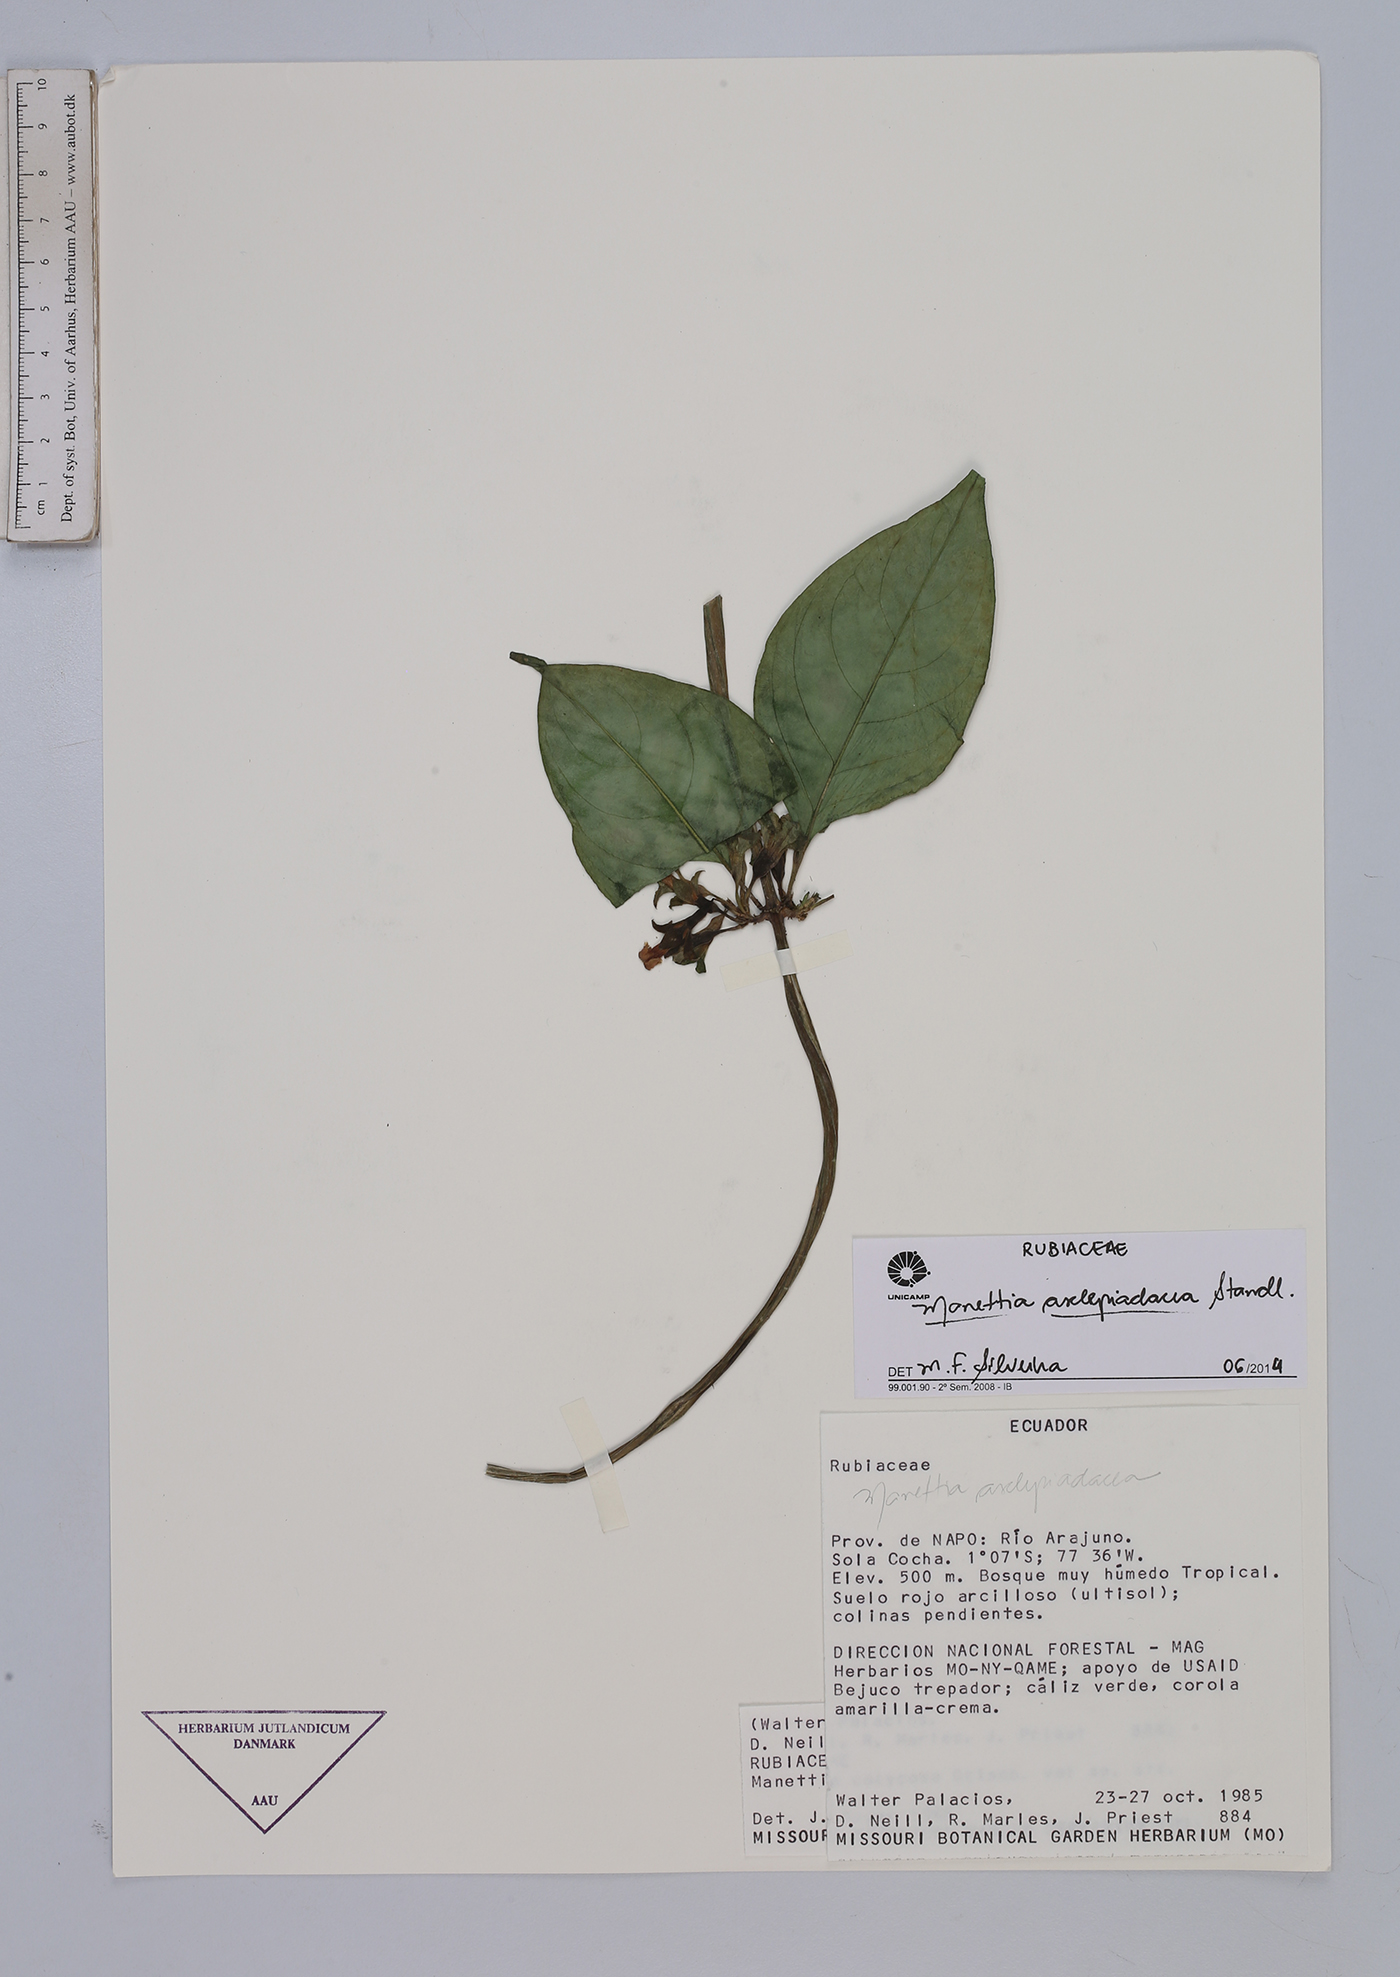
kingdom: Plantae
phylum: Tracheophyta
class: Magnoliopsida
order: Gentianales
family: Rubiaceae
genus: Manettia
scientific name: Manettia asclepiadacea
